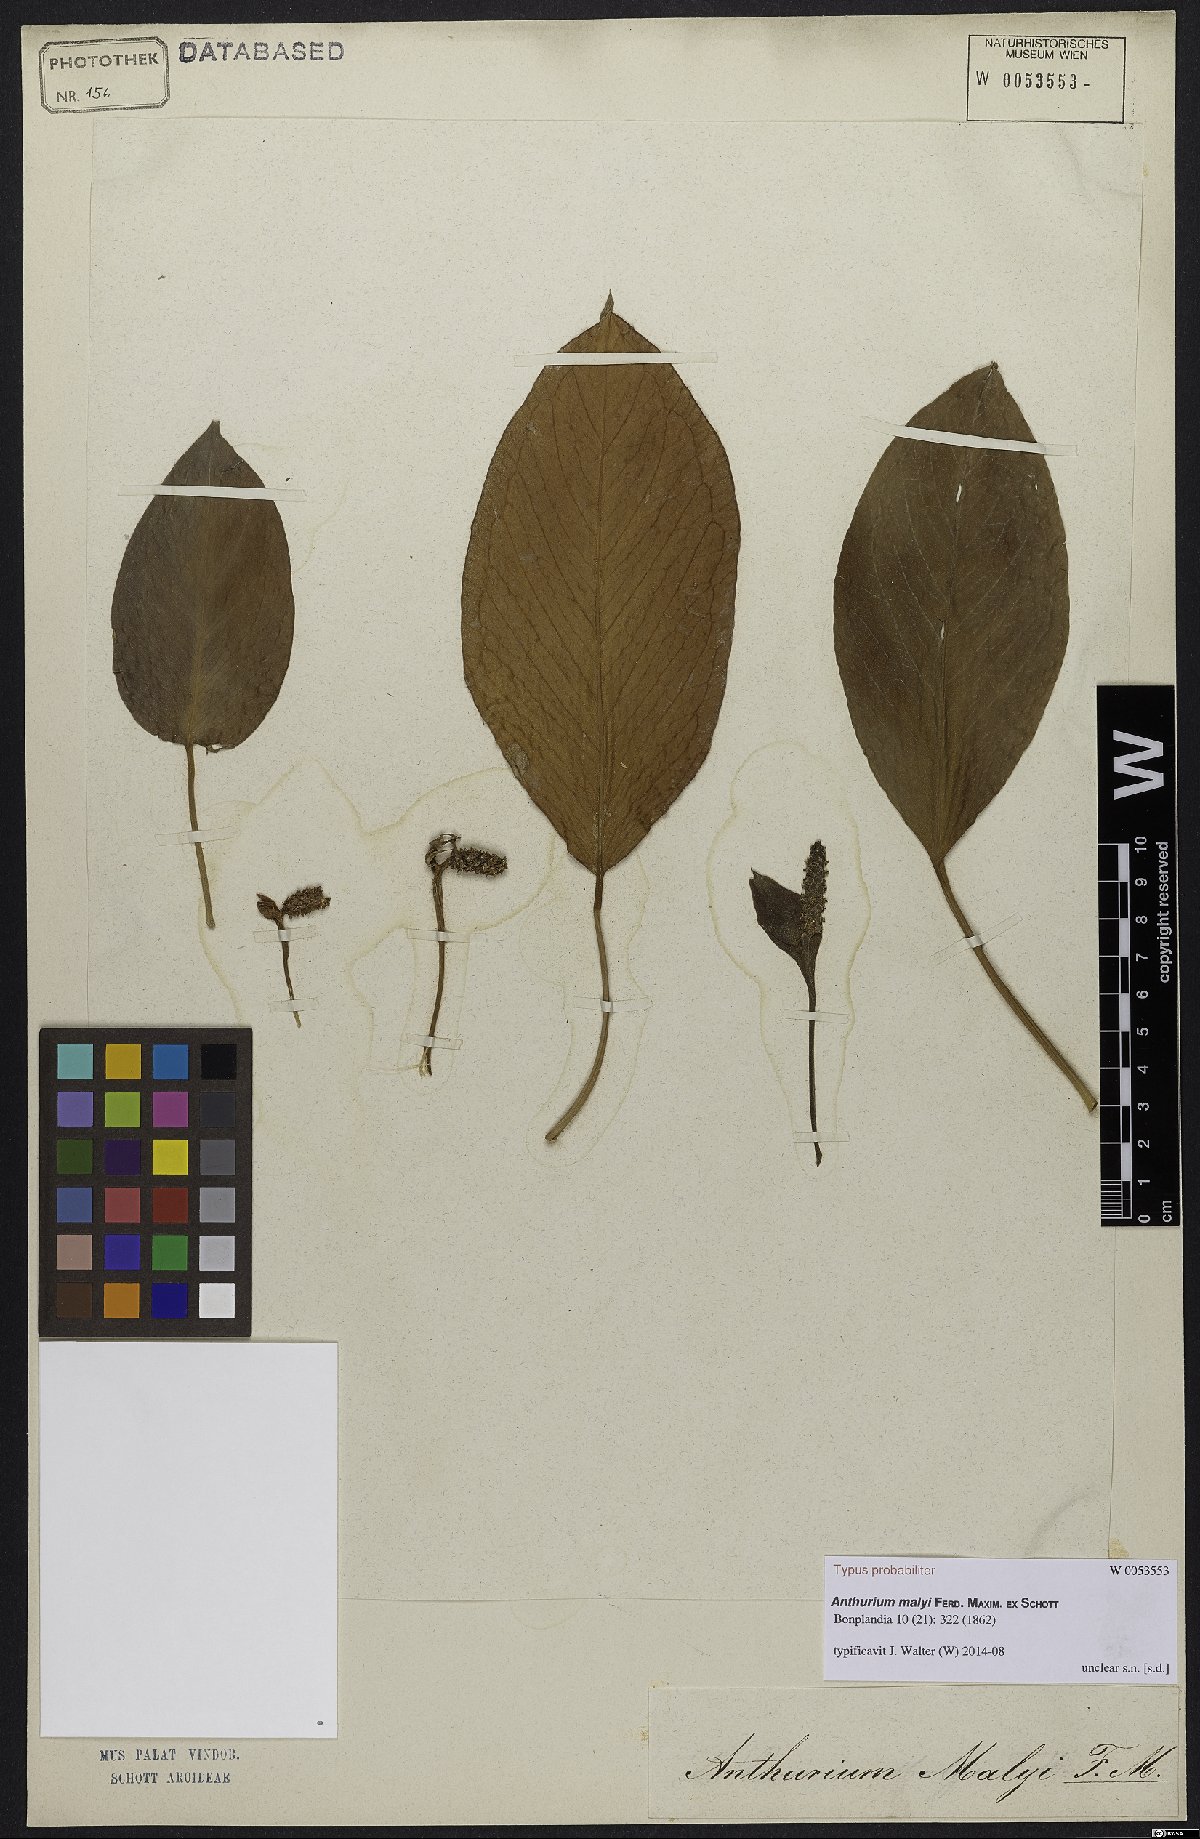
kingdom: Plantae
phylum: Tracheophyta
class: Liliopsida
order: Alismatales
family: Araceae
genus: Anthurium
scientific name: Anthurium radicans
